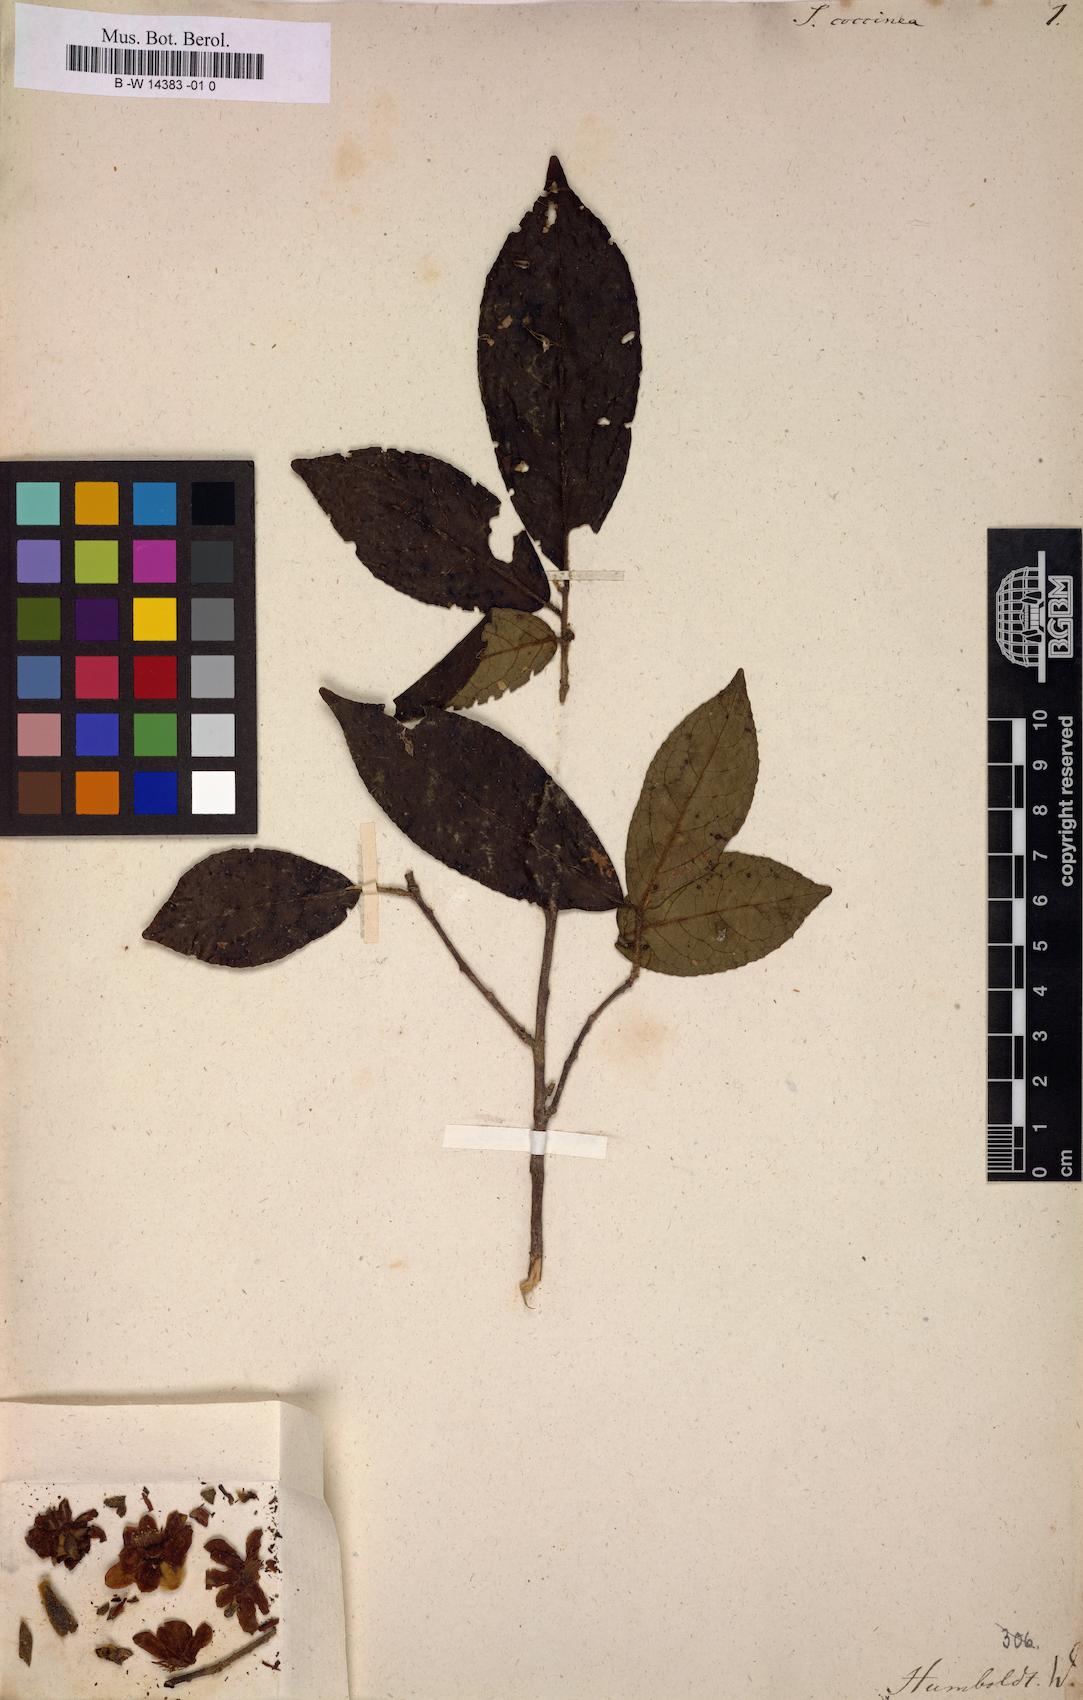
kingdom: Plantae
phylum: Tracheophyta
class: Magnoliopsida
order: Ericales
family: Symplocaceae
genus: Symplocos
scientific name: Symplocos coccinea
